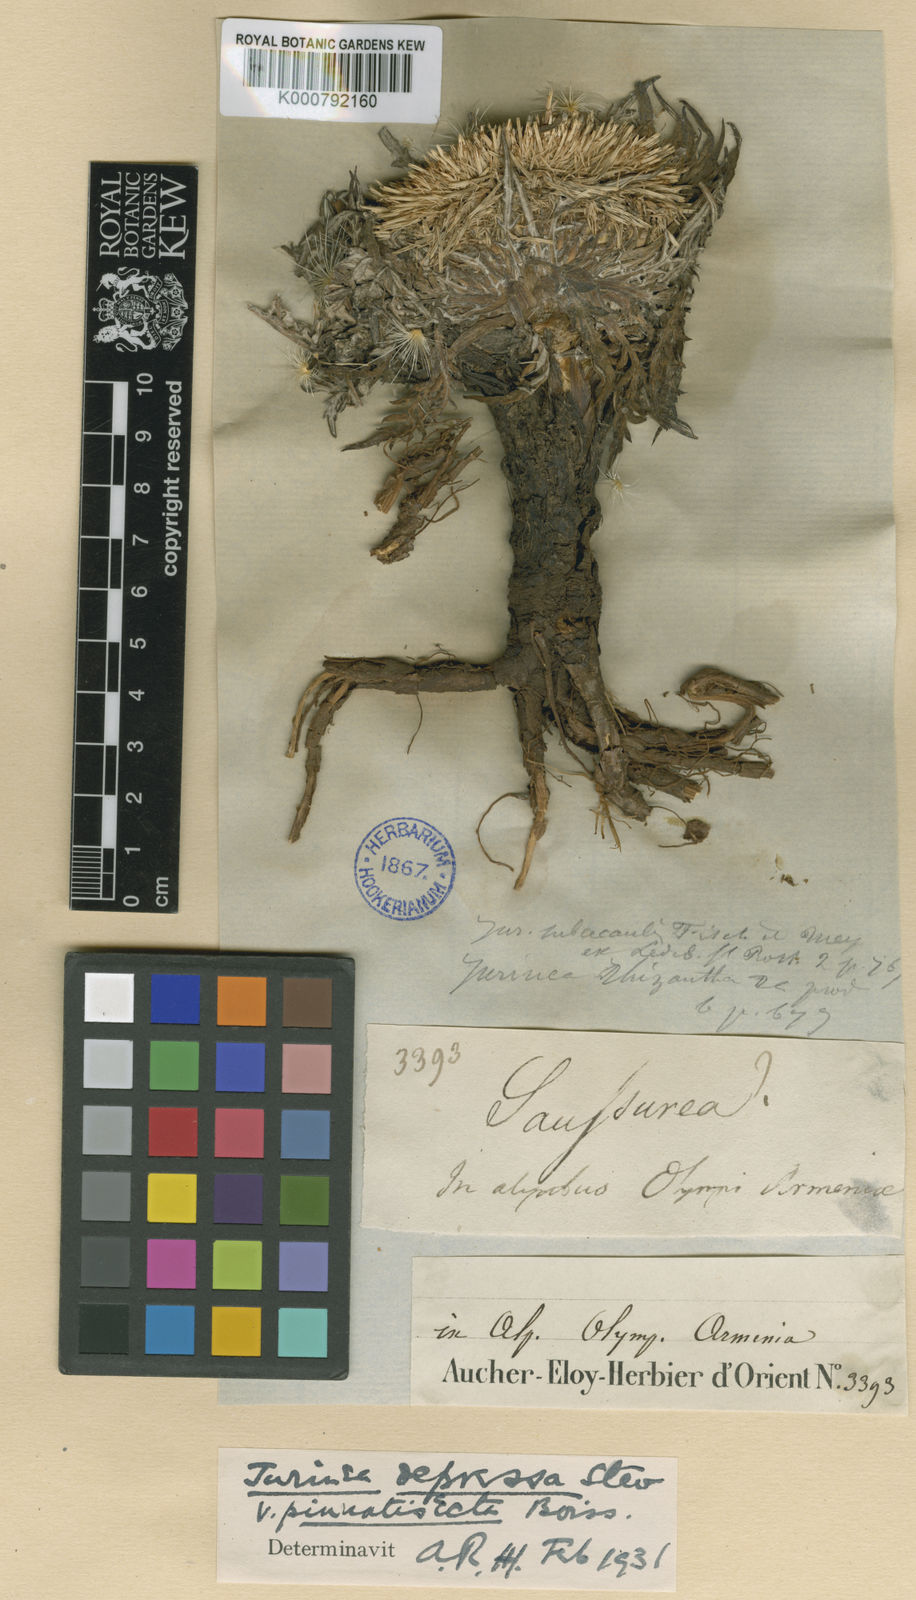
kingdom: Plantae
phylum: Tracheophyta
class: Magnoliopsida
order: Asterales
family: Asteraceae
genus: Jurinea
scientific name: Jurinea moschus
